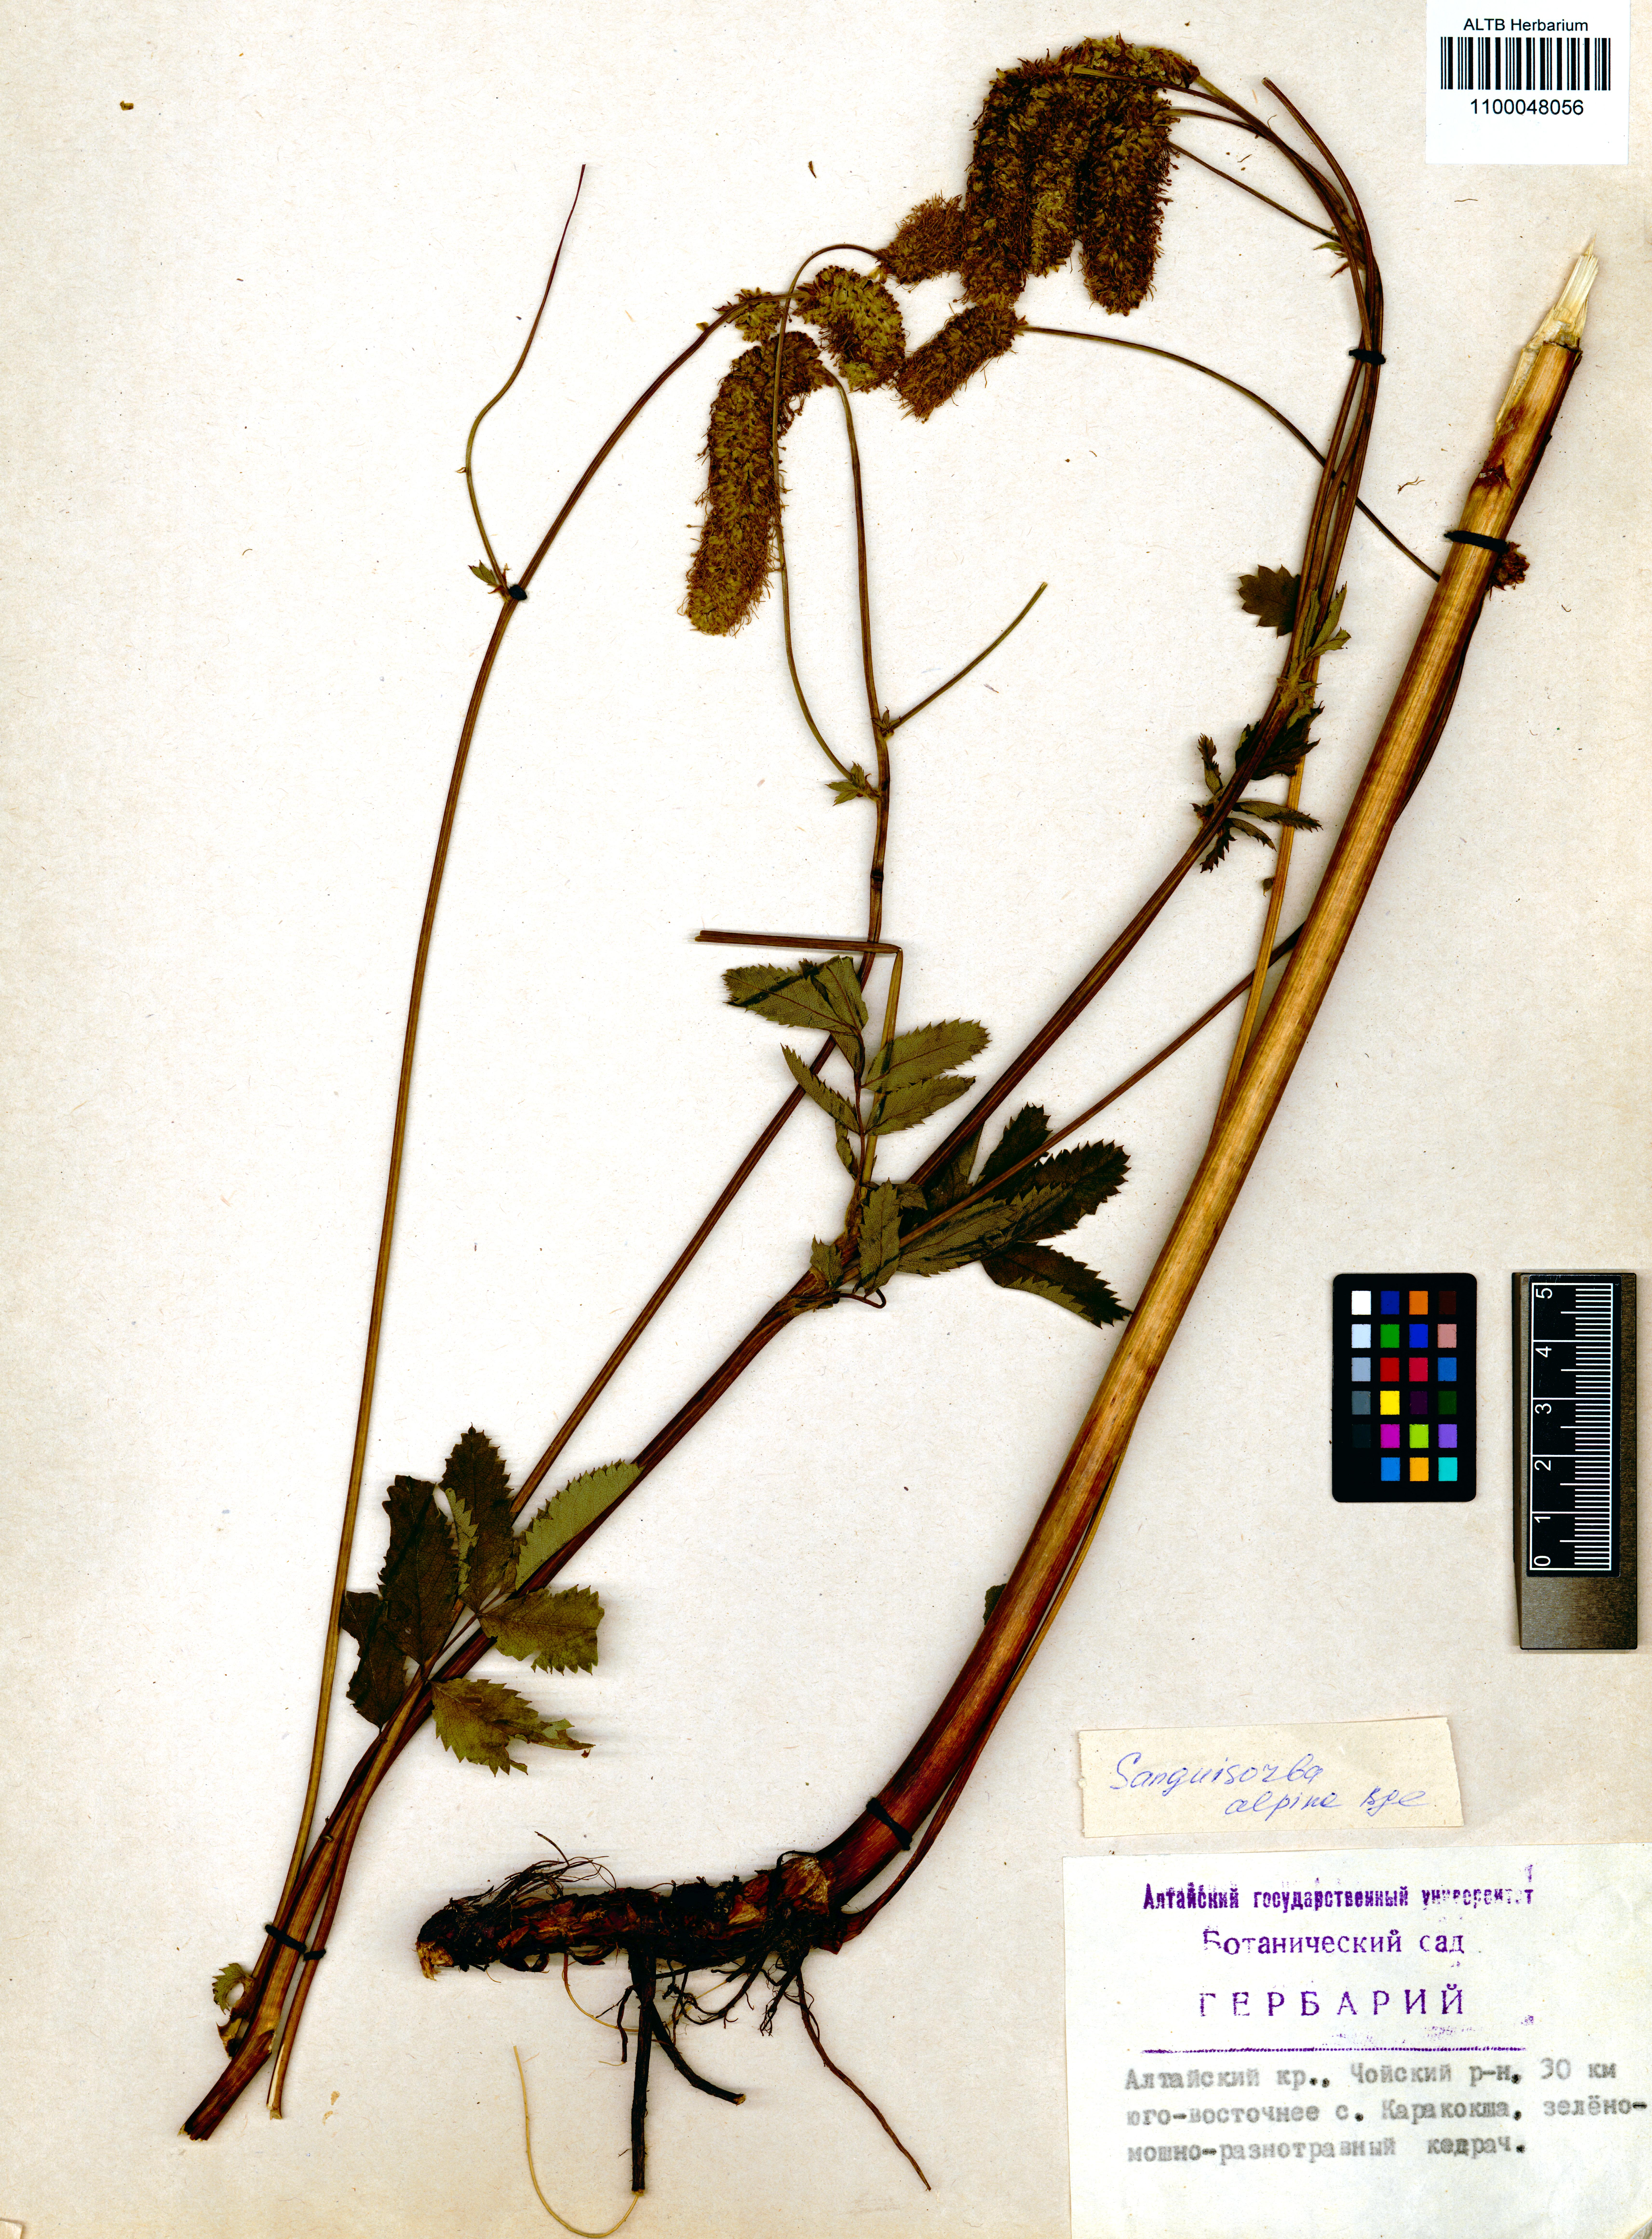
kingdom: Plantae
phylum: Tracheophyta
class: Magnoliopsida
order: Rosales
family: Rosaceae
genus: Sanguisorba
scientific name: Sanguisorba alpina
